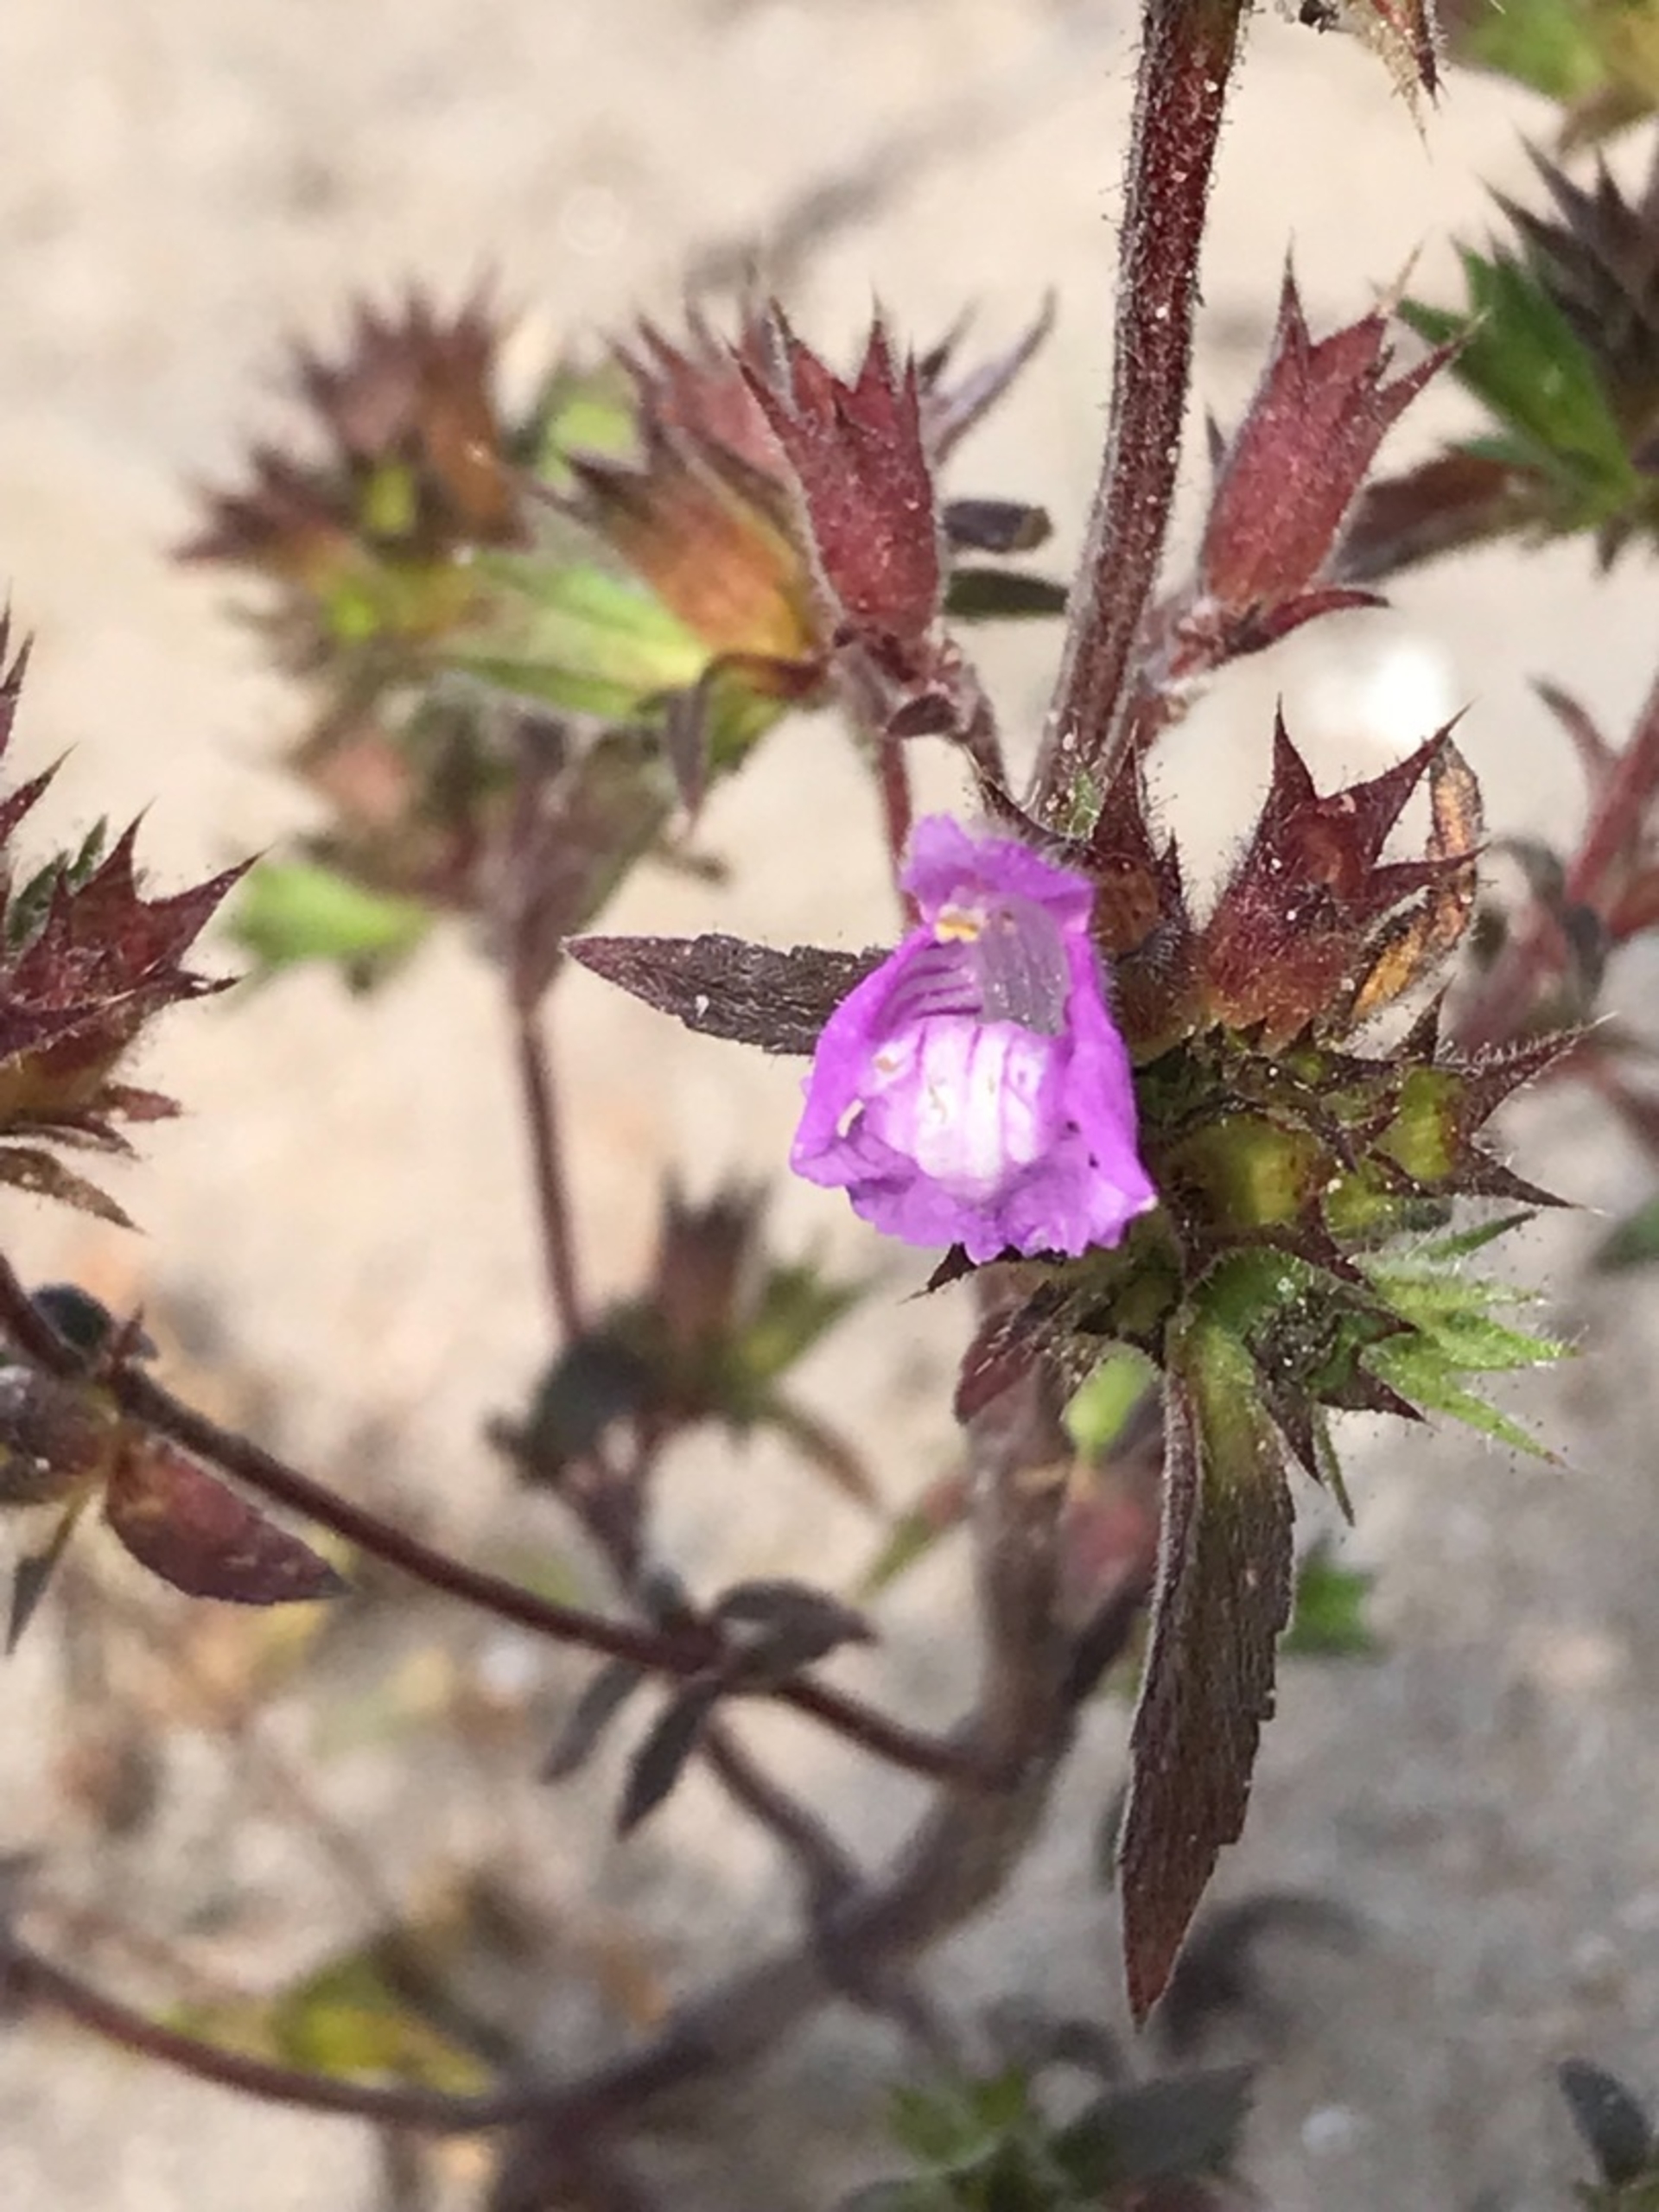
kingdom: Plantae
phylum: Tracheophyta
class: Magnoliopsida
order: Lamiales
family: Lamiaceae
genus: Galeopsis
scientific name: Galeopsis ladanum
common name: Sand-hanekro
